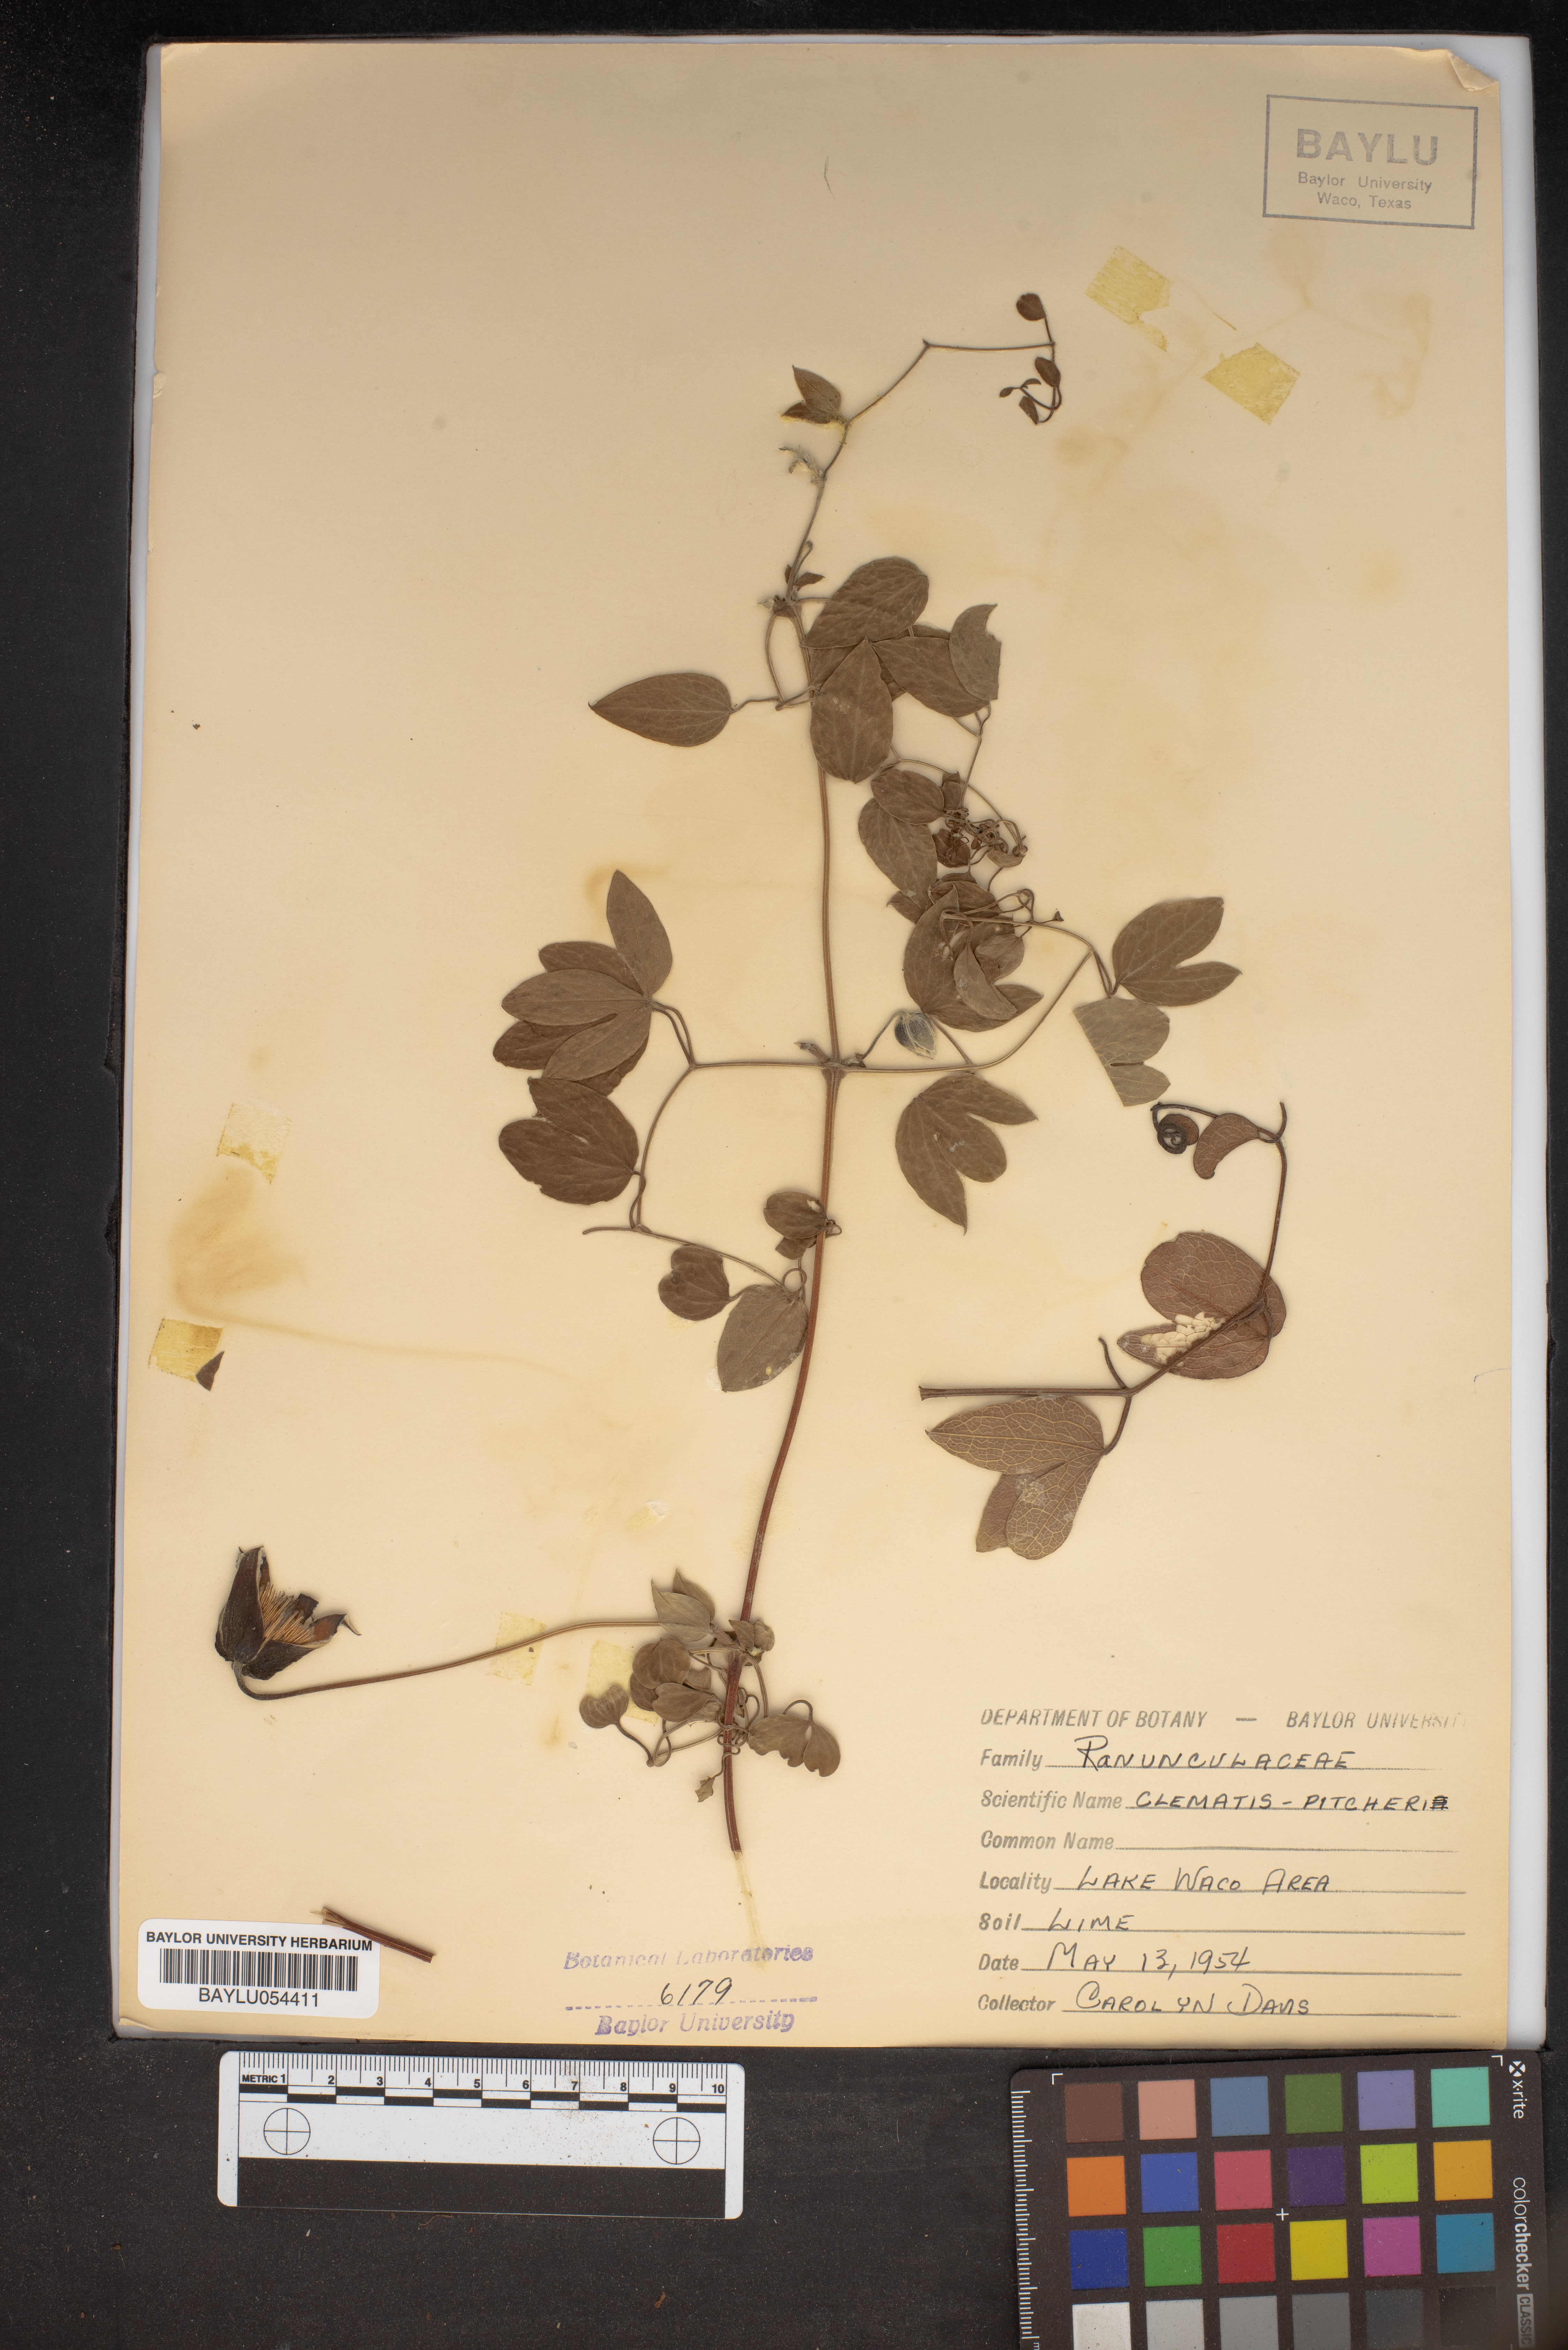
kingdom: Plantae
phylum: Tracheophyta
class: Magnoliopsida
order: Ranunculales
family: Ranunculaceae
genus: Clematis
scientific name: Clematis pitcheri
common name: Bellflower clematis
